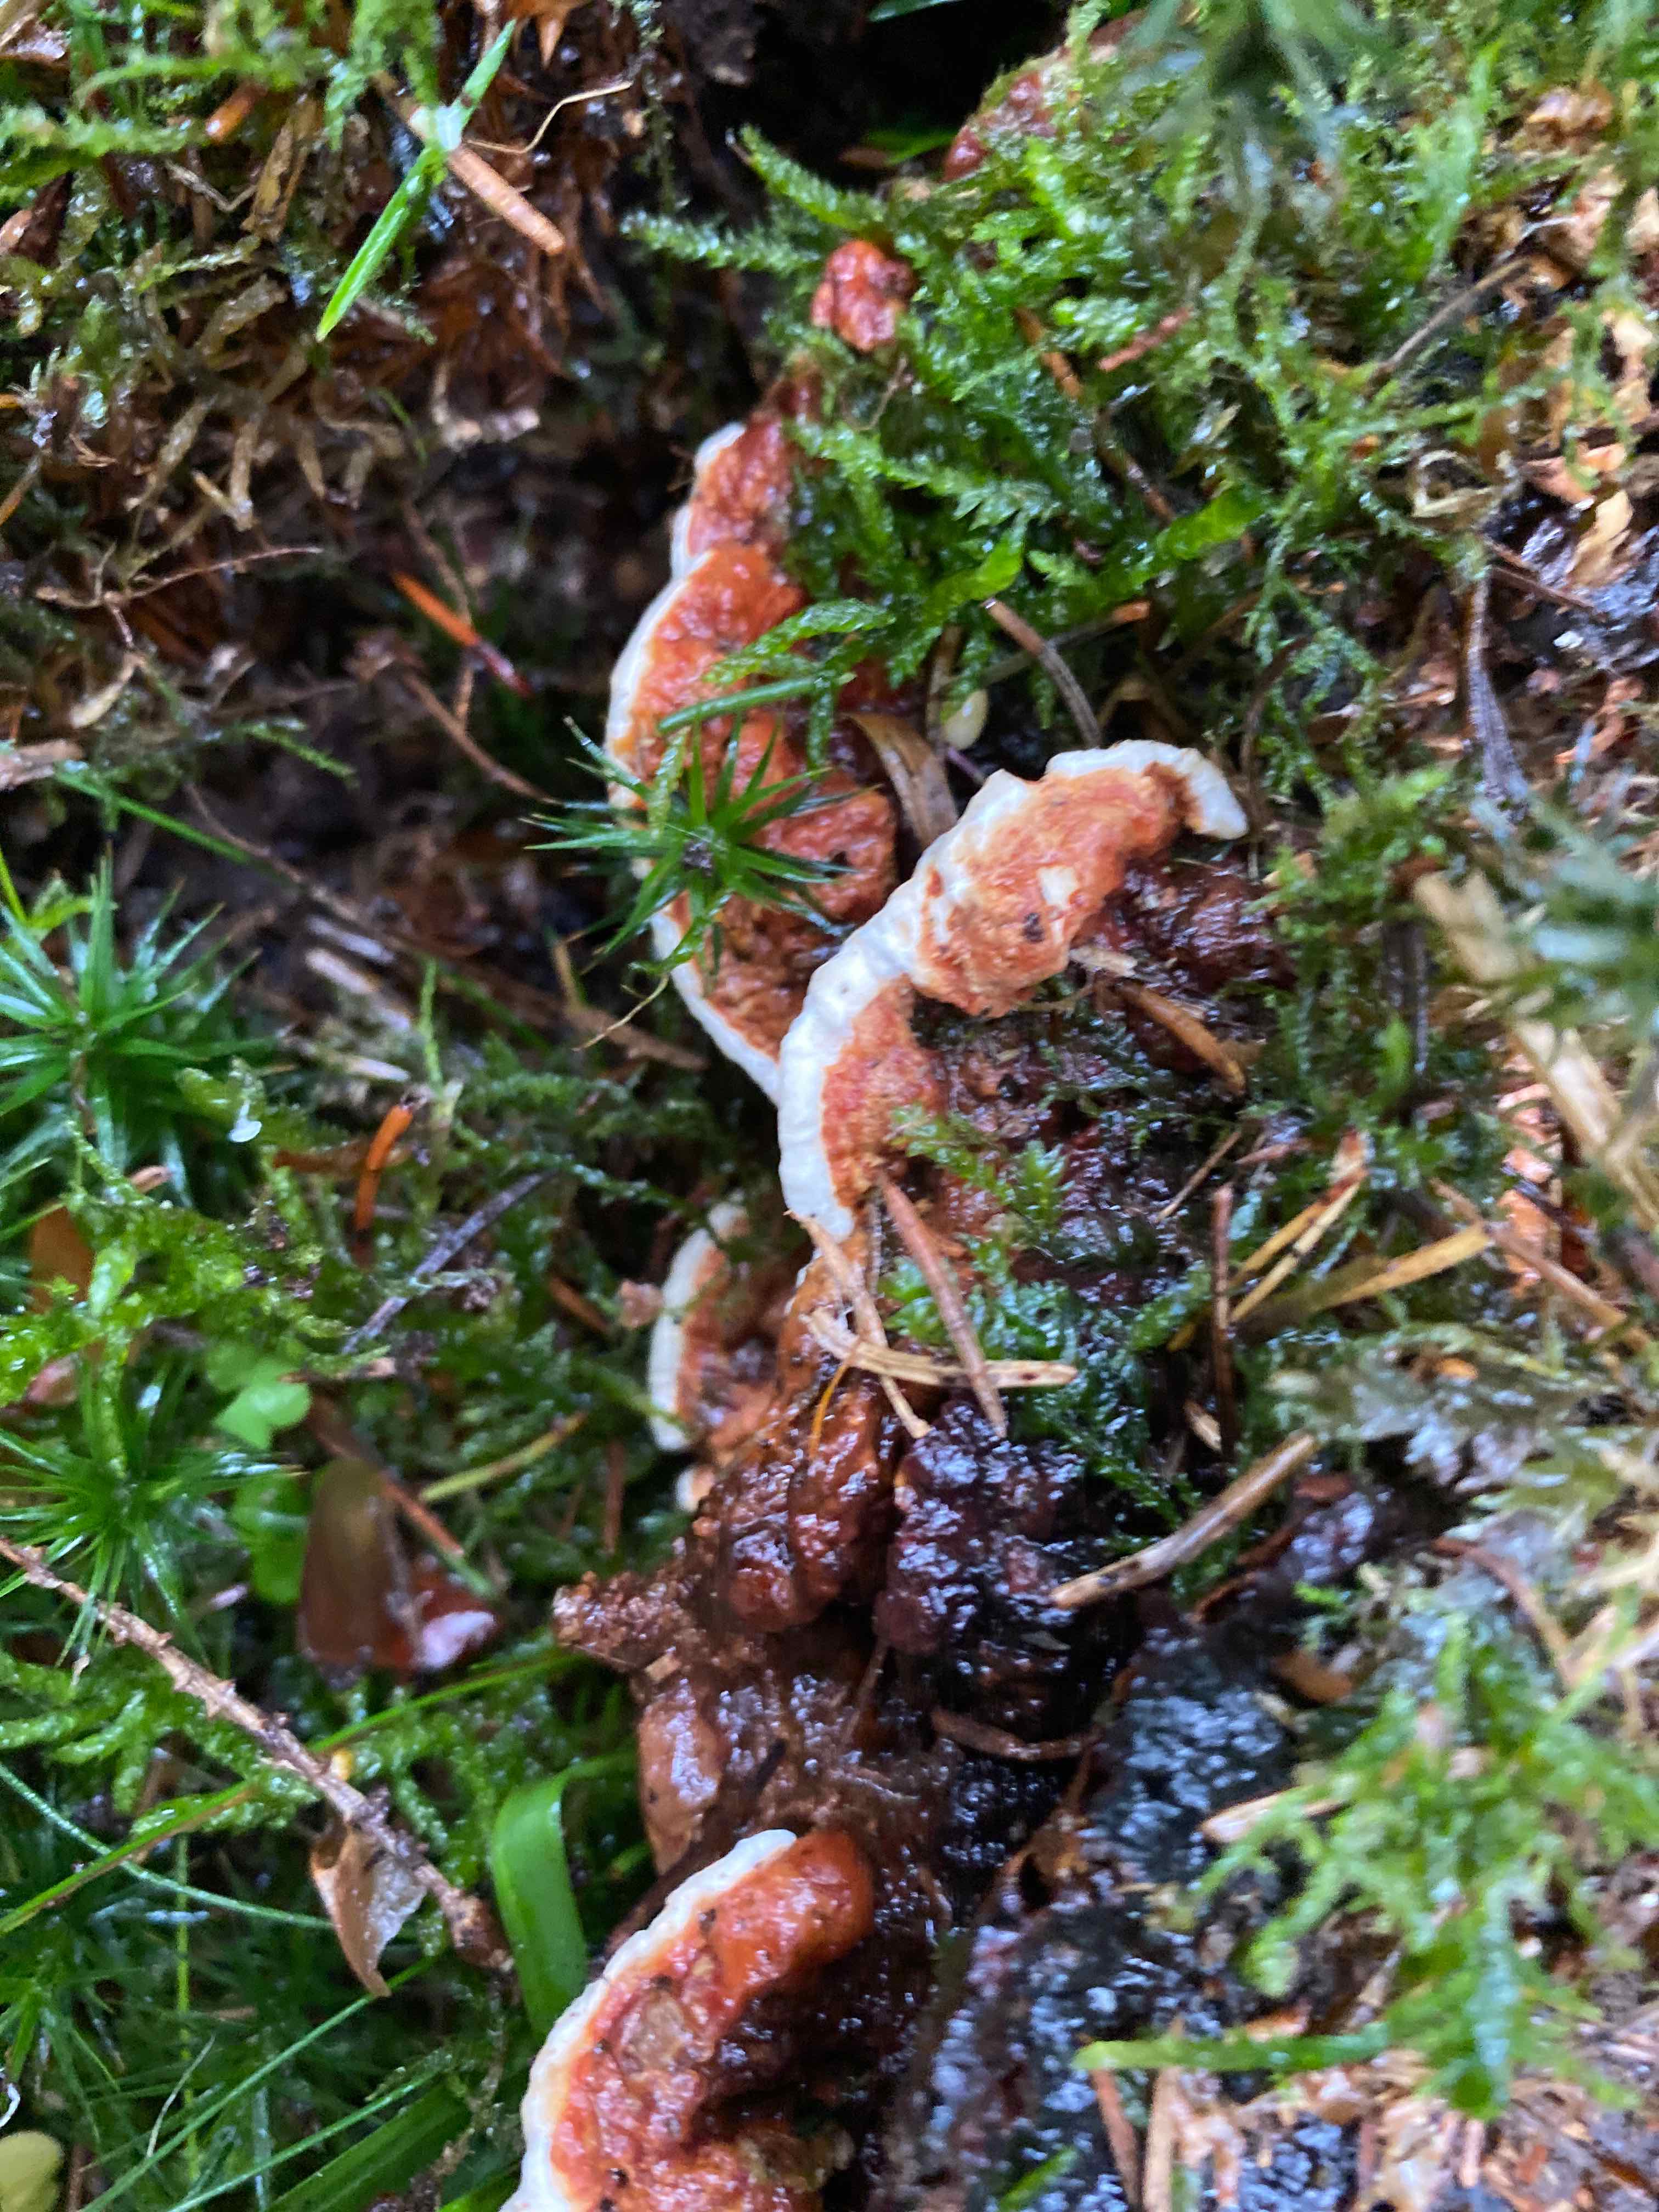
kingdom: Fungi
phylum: Basidiomycota
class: Agaricomycetes
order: Russulales
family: Bondarzewiaceae
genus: Heterobasidion
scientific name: Heterobasidion annosum
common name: almindelig rodfordærver
